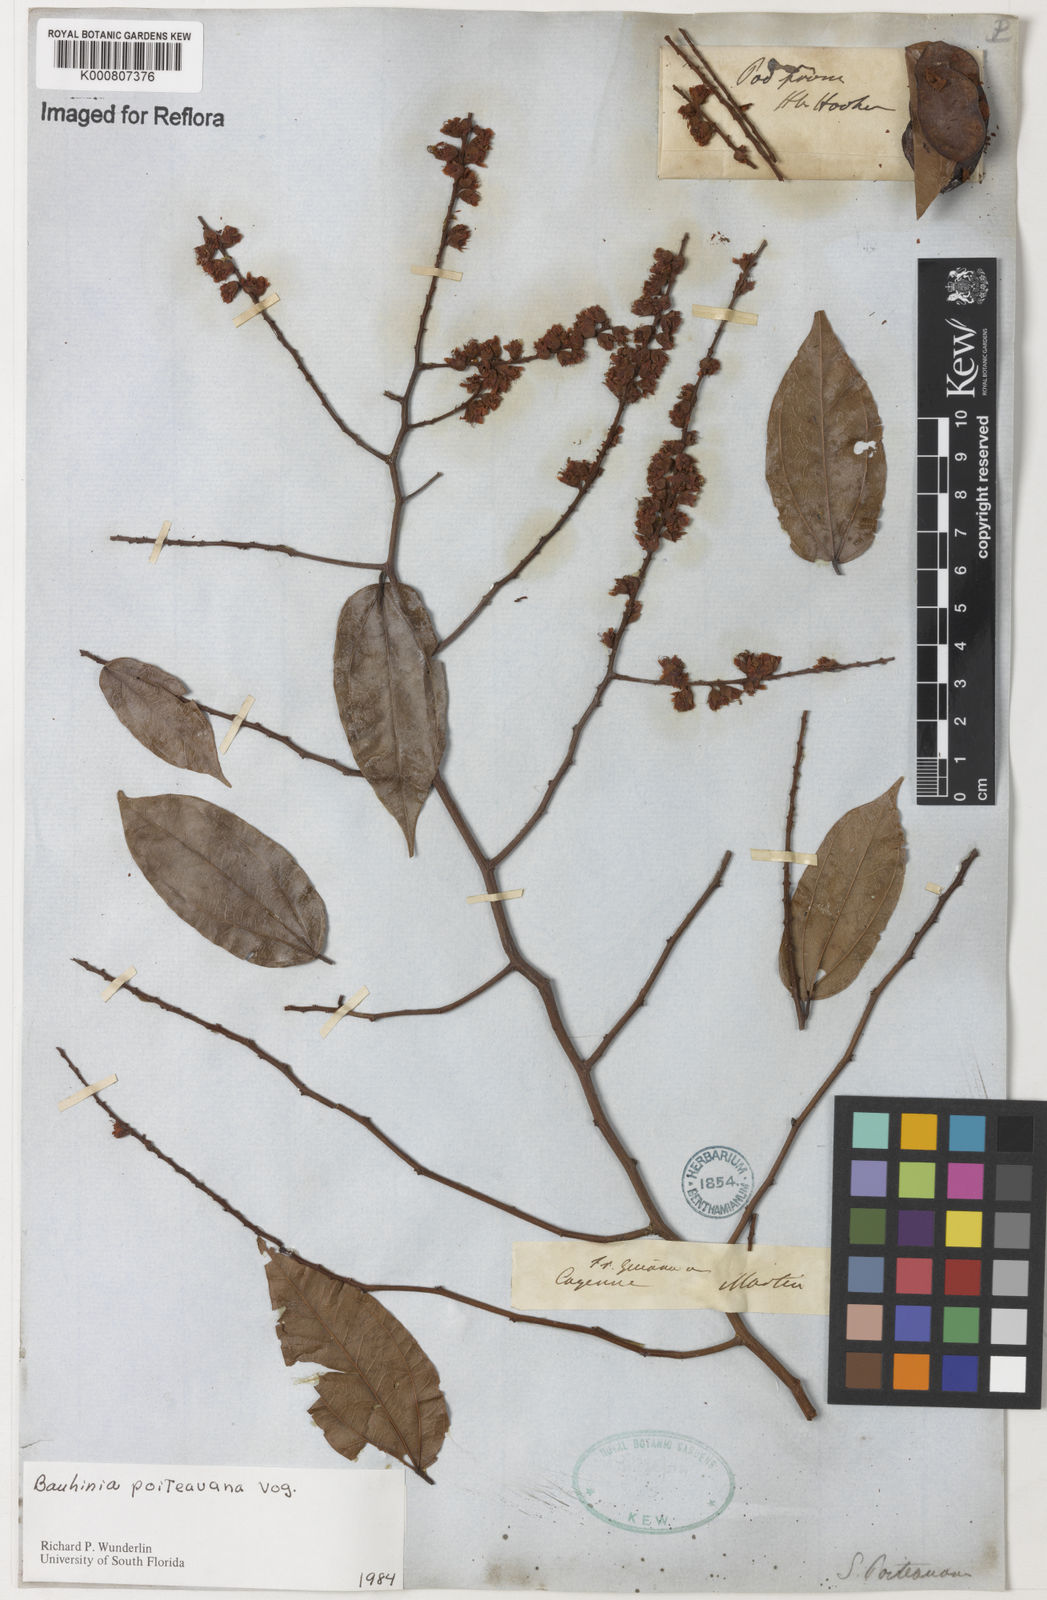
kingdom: Plantae
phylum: Tracheophyta
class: Magnoliopsida
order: Fabales
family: Fabaceae
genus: Schnella
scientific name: Schnella poiteauana
